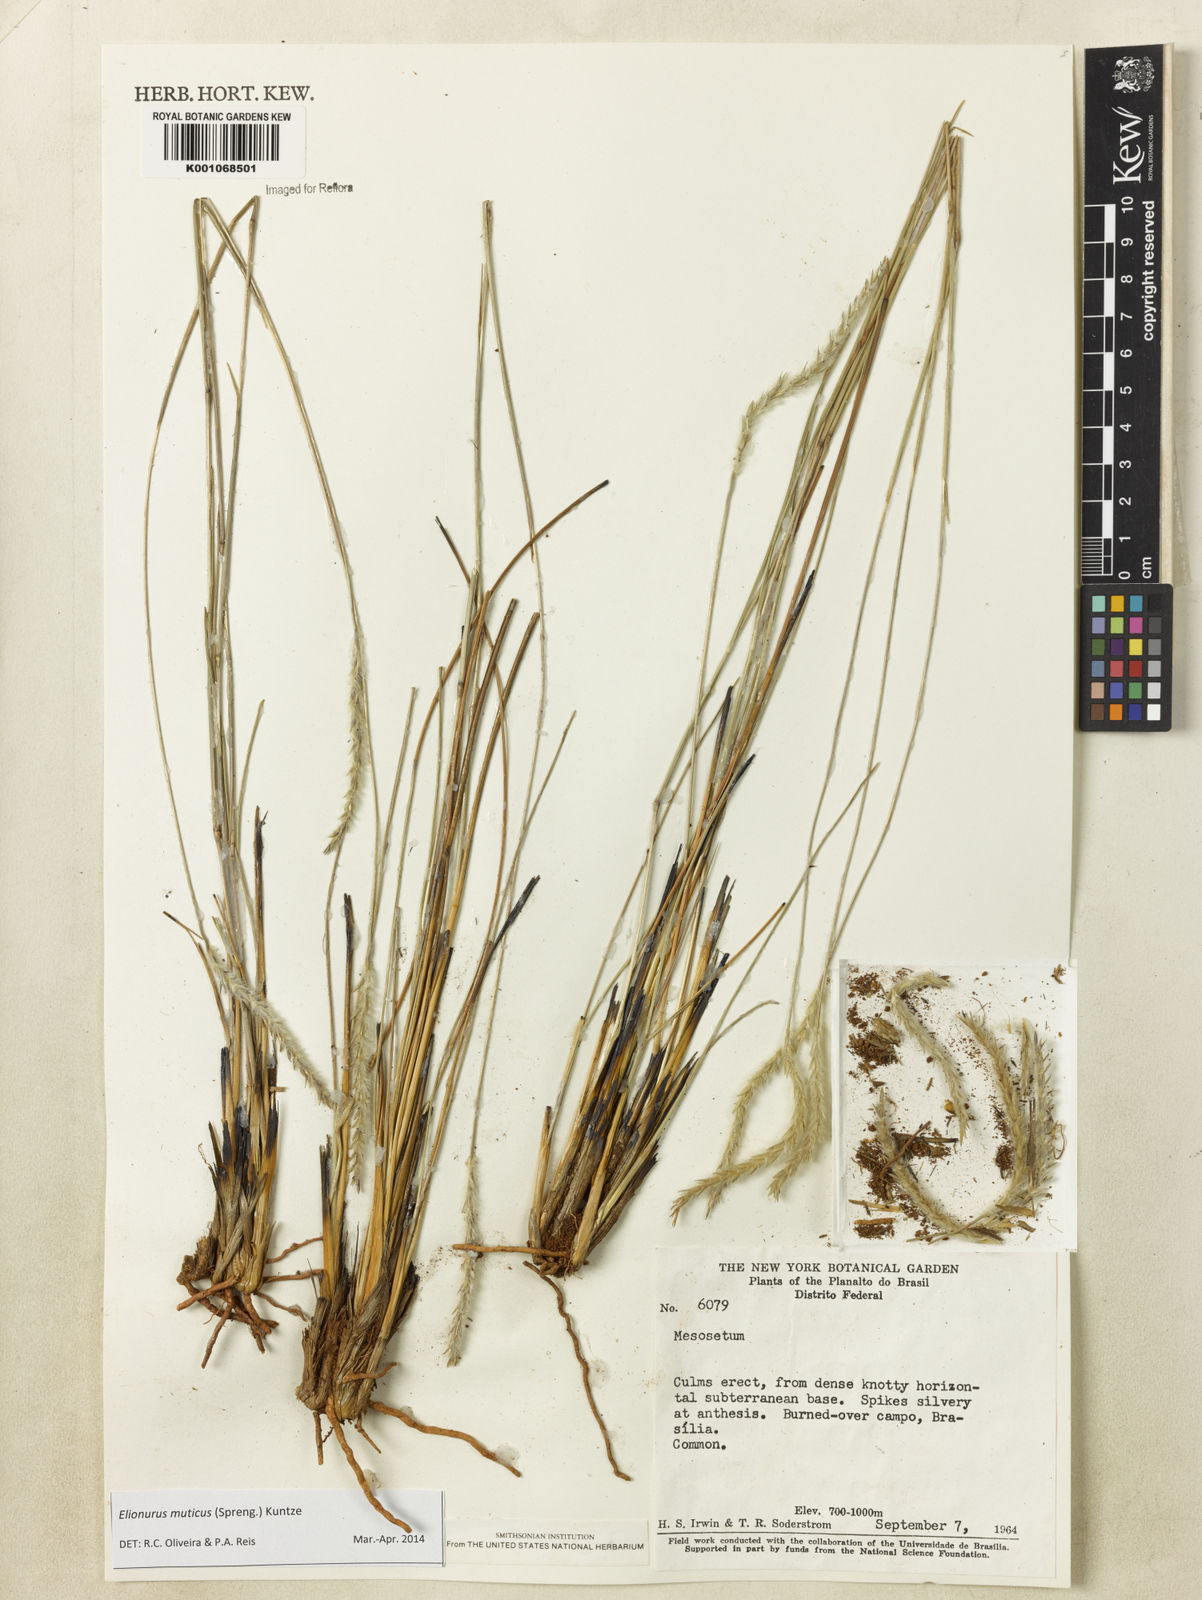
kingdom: Plantae
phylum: Tracheophyta
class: Liliopsida
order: Poales
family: Poaceae
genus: Elionurus
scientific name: Elionurus muticus
